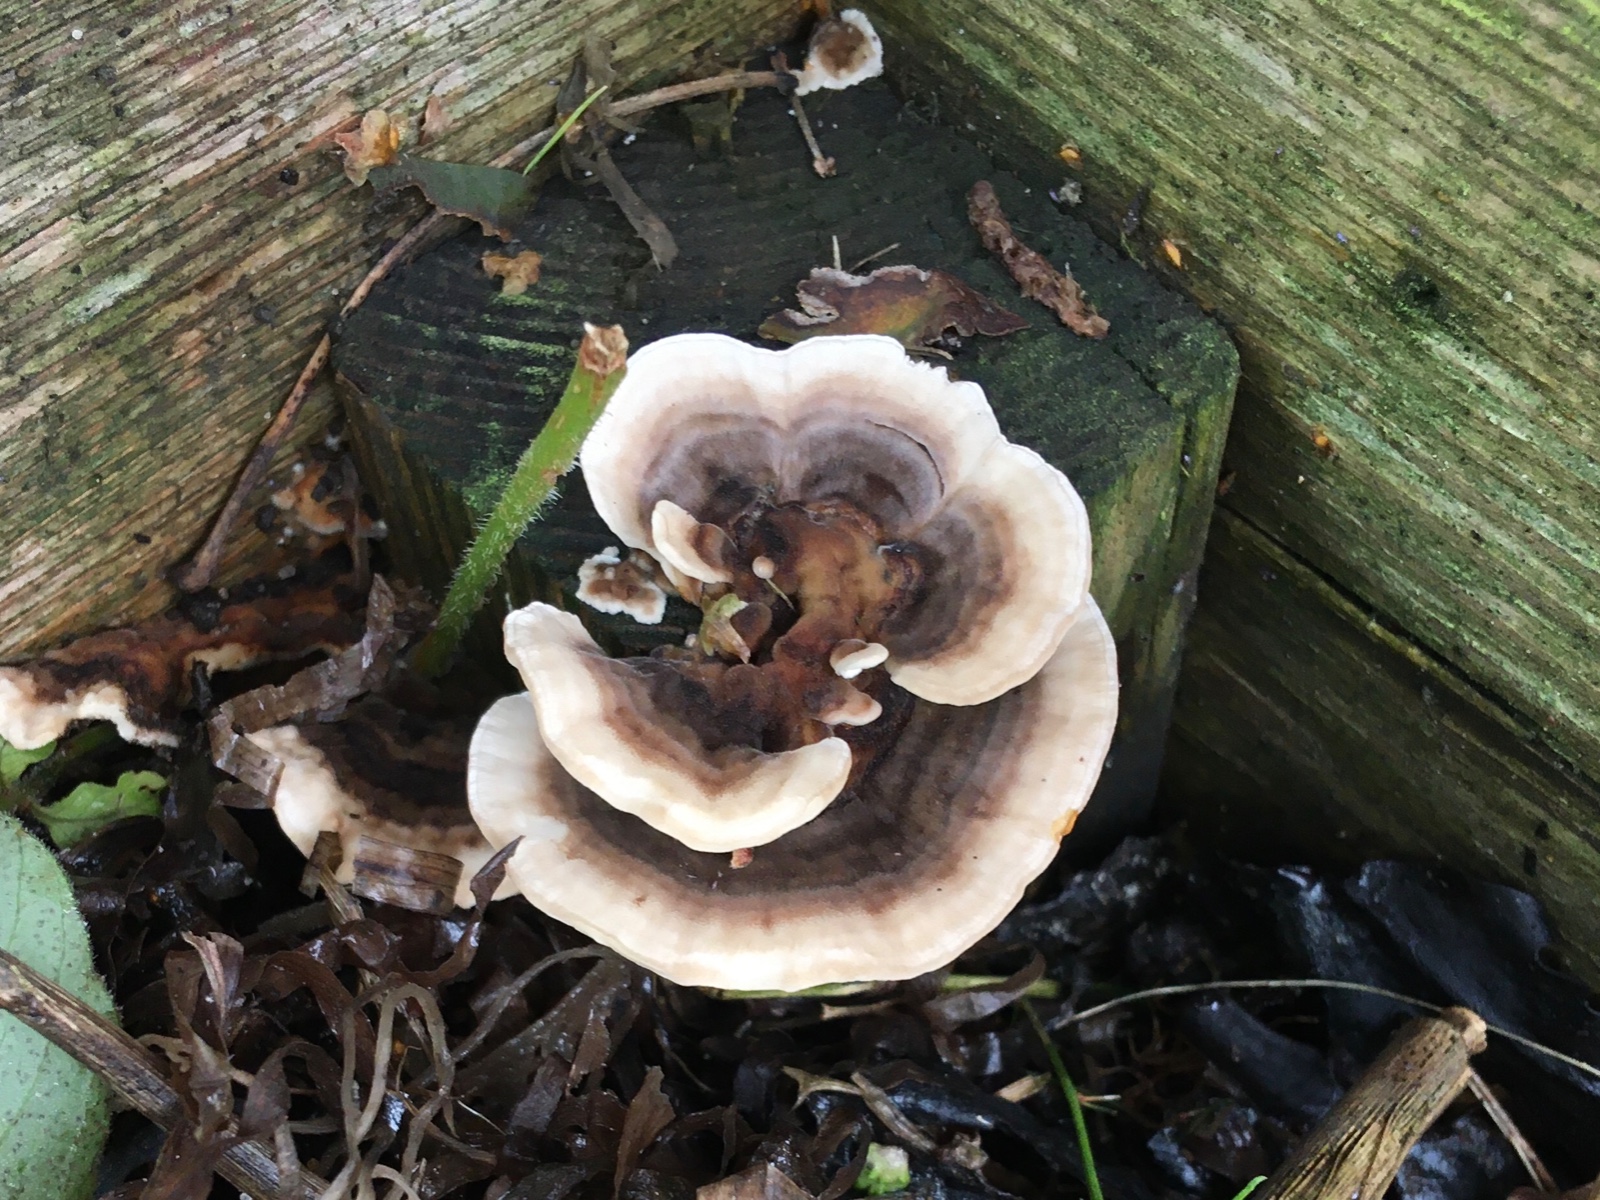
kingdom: Fungi
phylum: Basidiomycota
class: Agaricomycetes
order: Polyporales
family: Polyporaceae
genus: Trametes
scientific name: Trametes versicolor
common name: broget læderporesvamp
